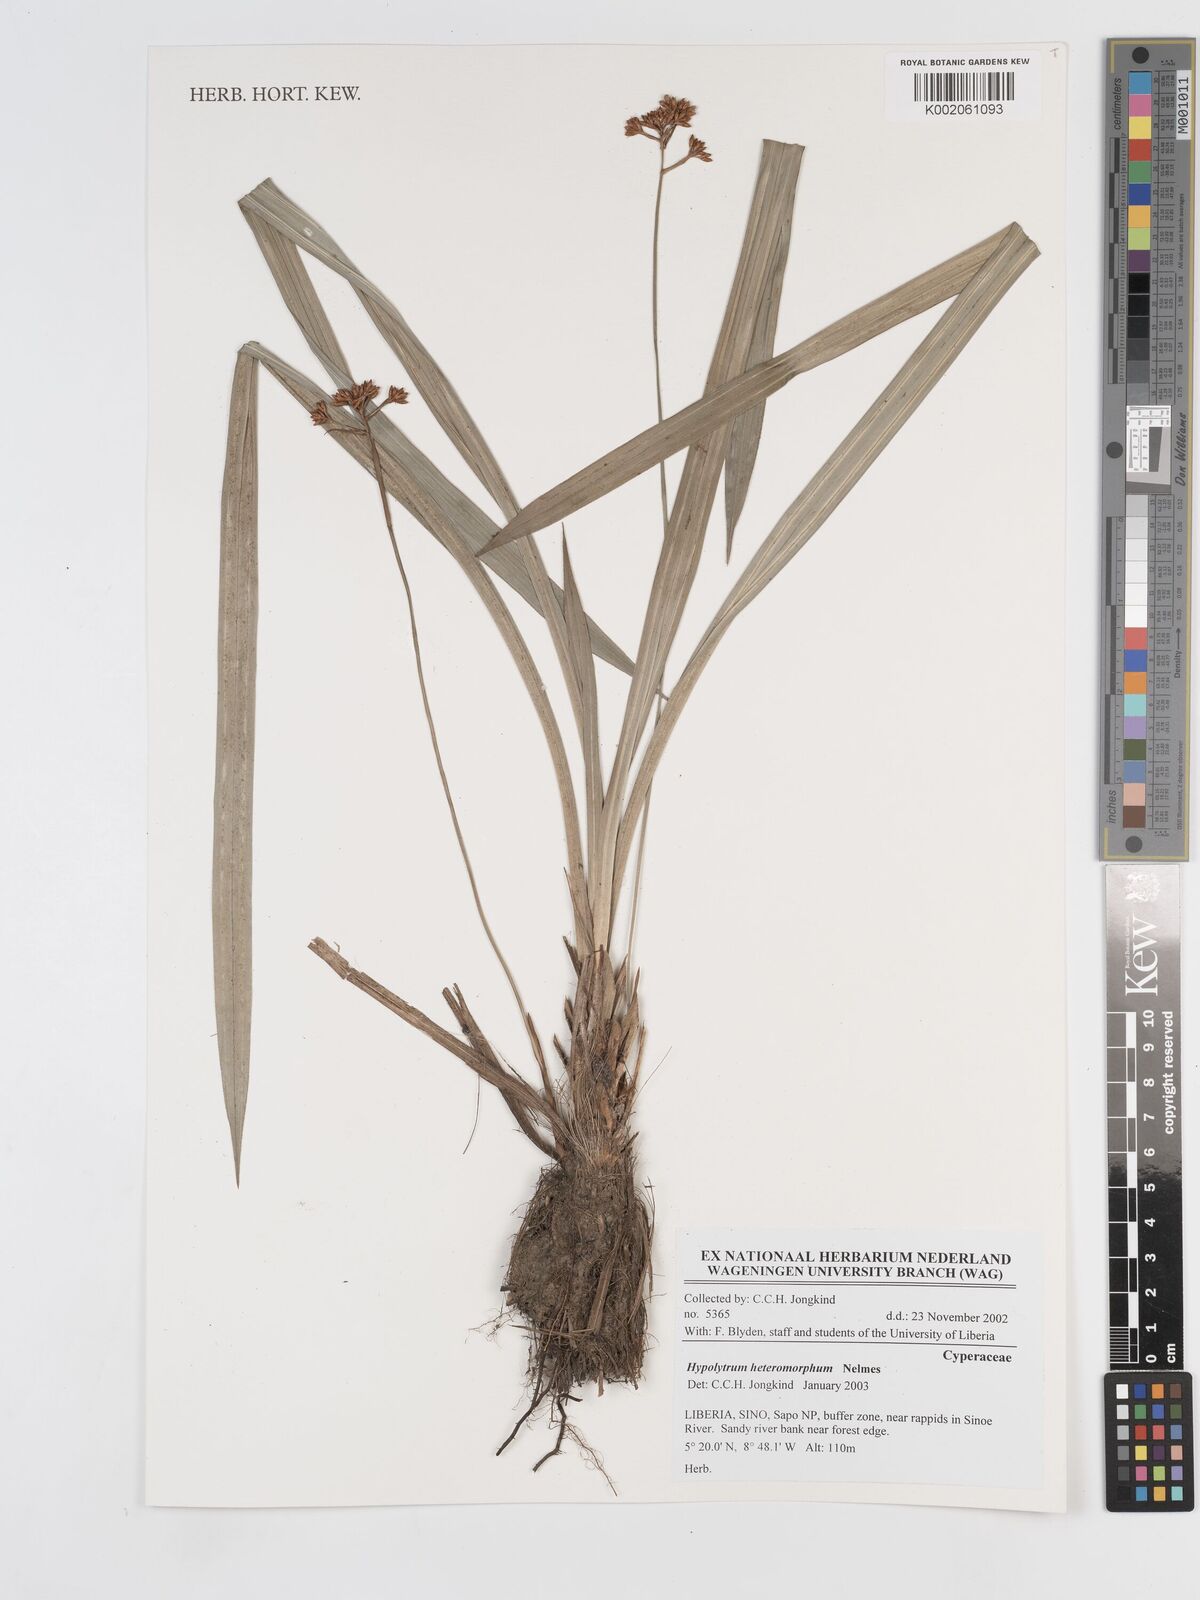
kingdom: Plantae
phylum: Tracheophyta
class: Liliopsida
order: Poales
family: Cyperaceae
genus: Hypolytrum
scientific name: Hypolytrum heteromorphum
